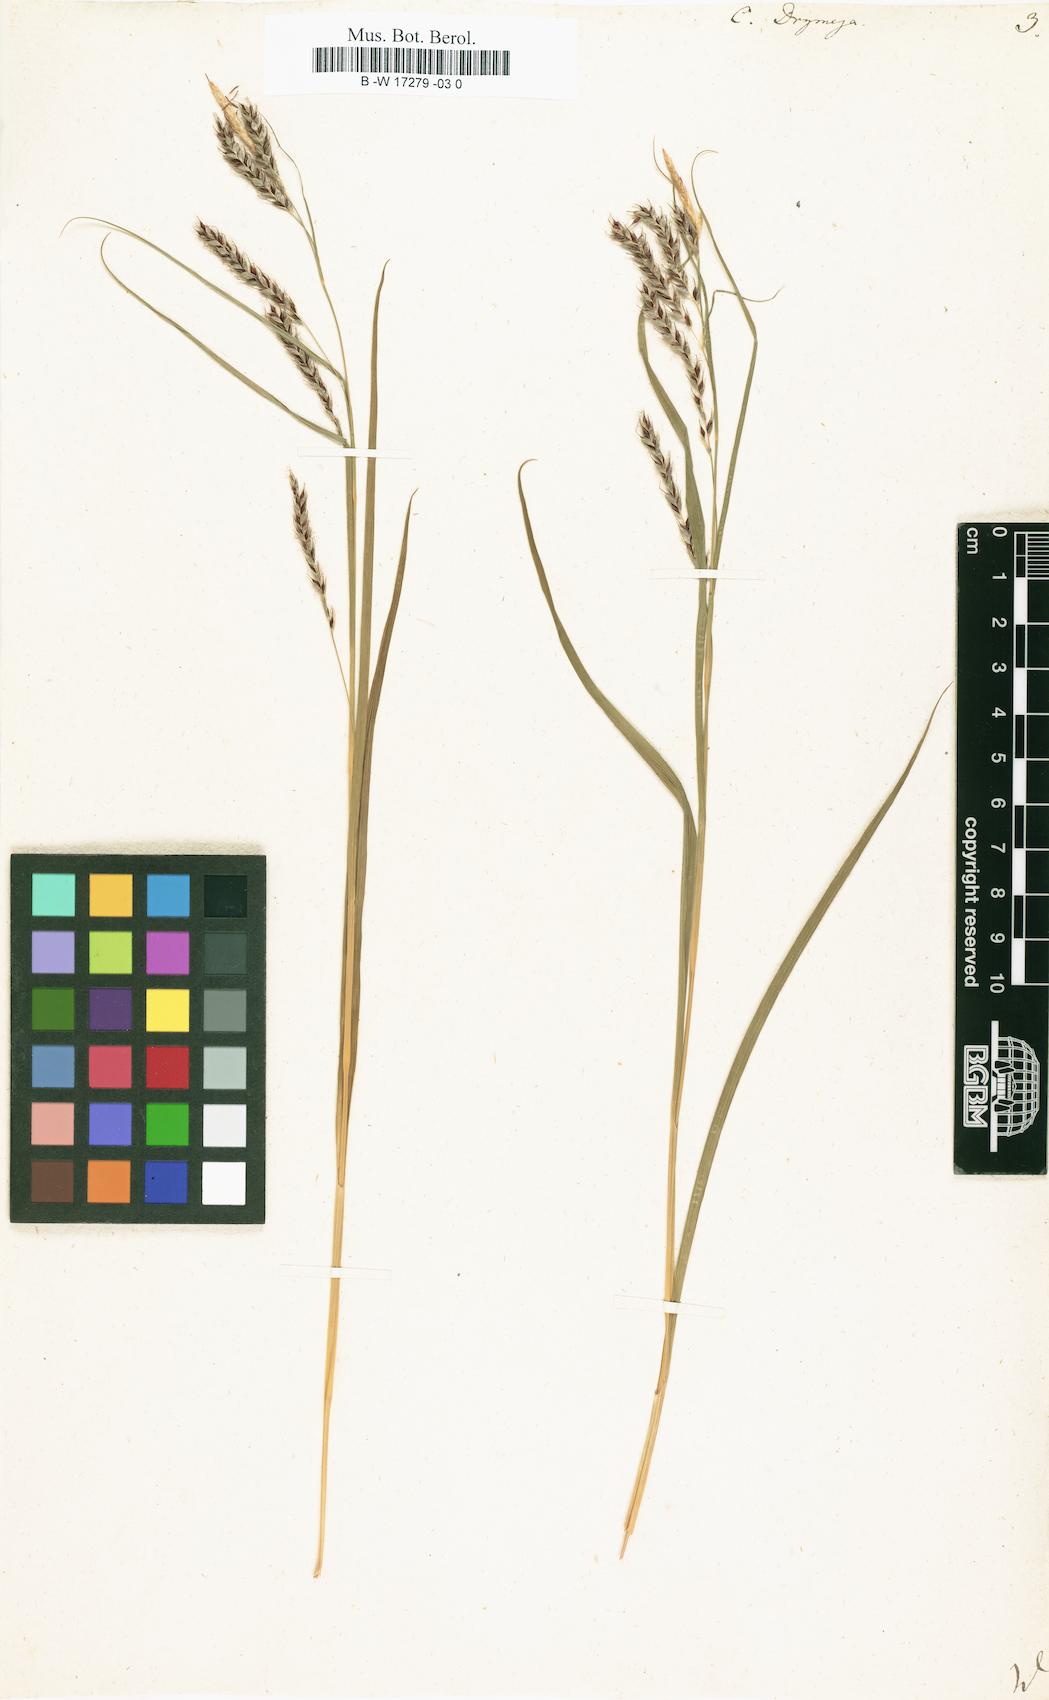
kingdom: Plantae
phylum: Tracheophyta
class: Liliopsida
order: Poales
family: Cyperaceae
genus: Carex
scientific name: Carex sylvatica
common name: Wood-sedge
